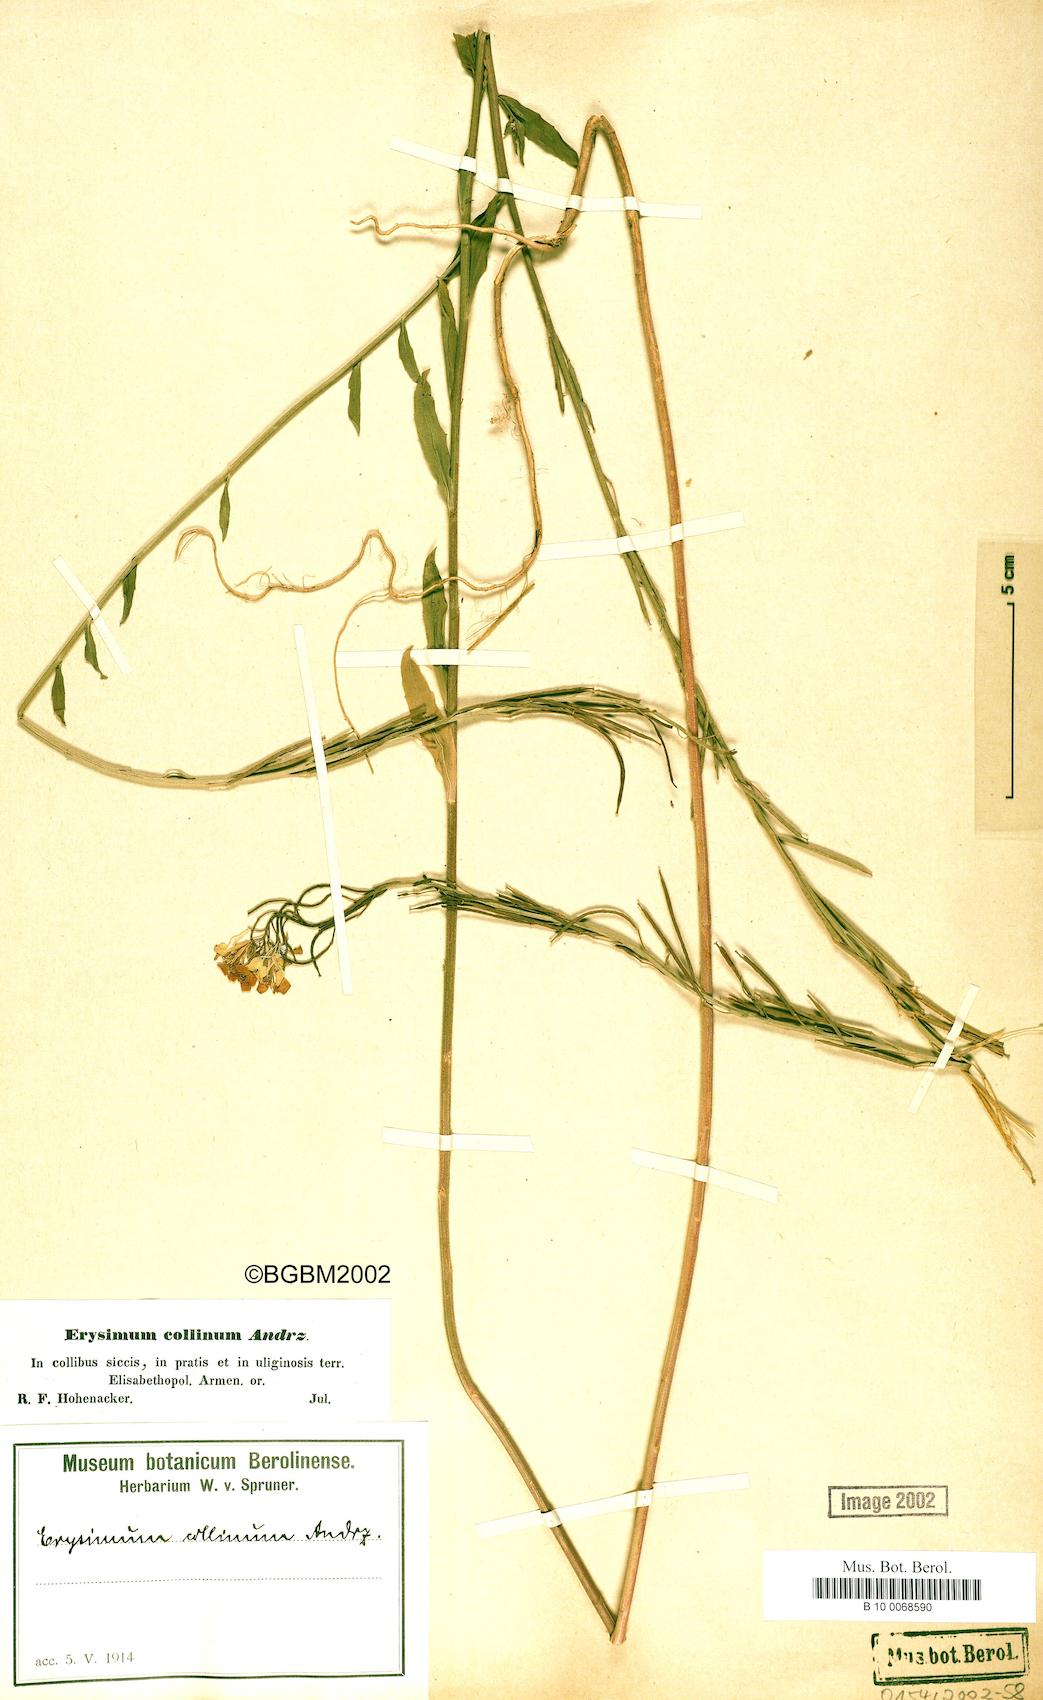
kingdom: Plantae
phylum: Tracheophyta
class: Magnoliopsida
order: Brassicales
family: Brassicaceae
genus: Erysimum
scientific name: Erysimum collinum
